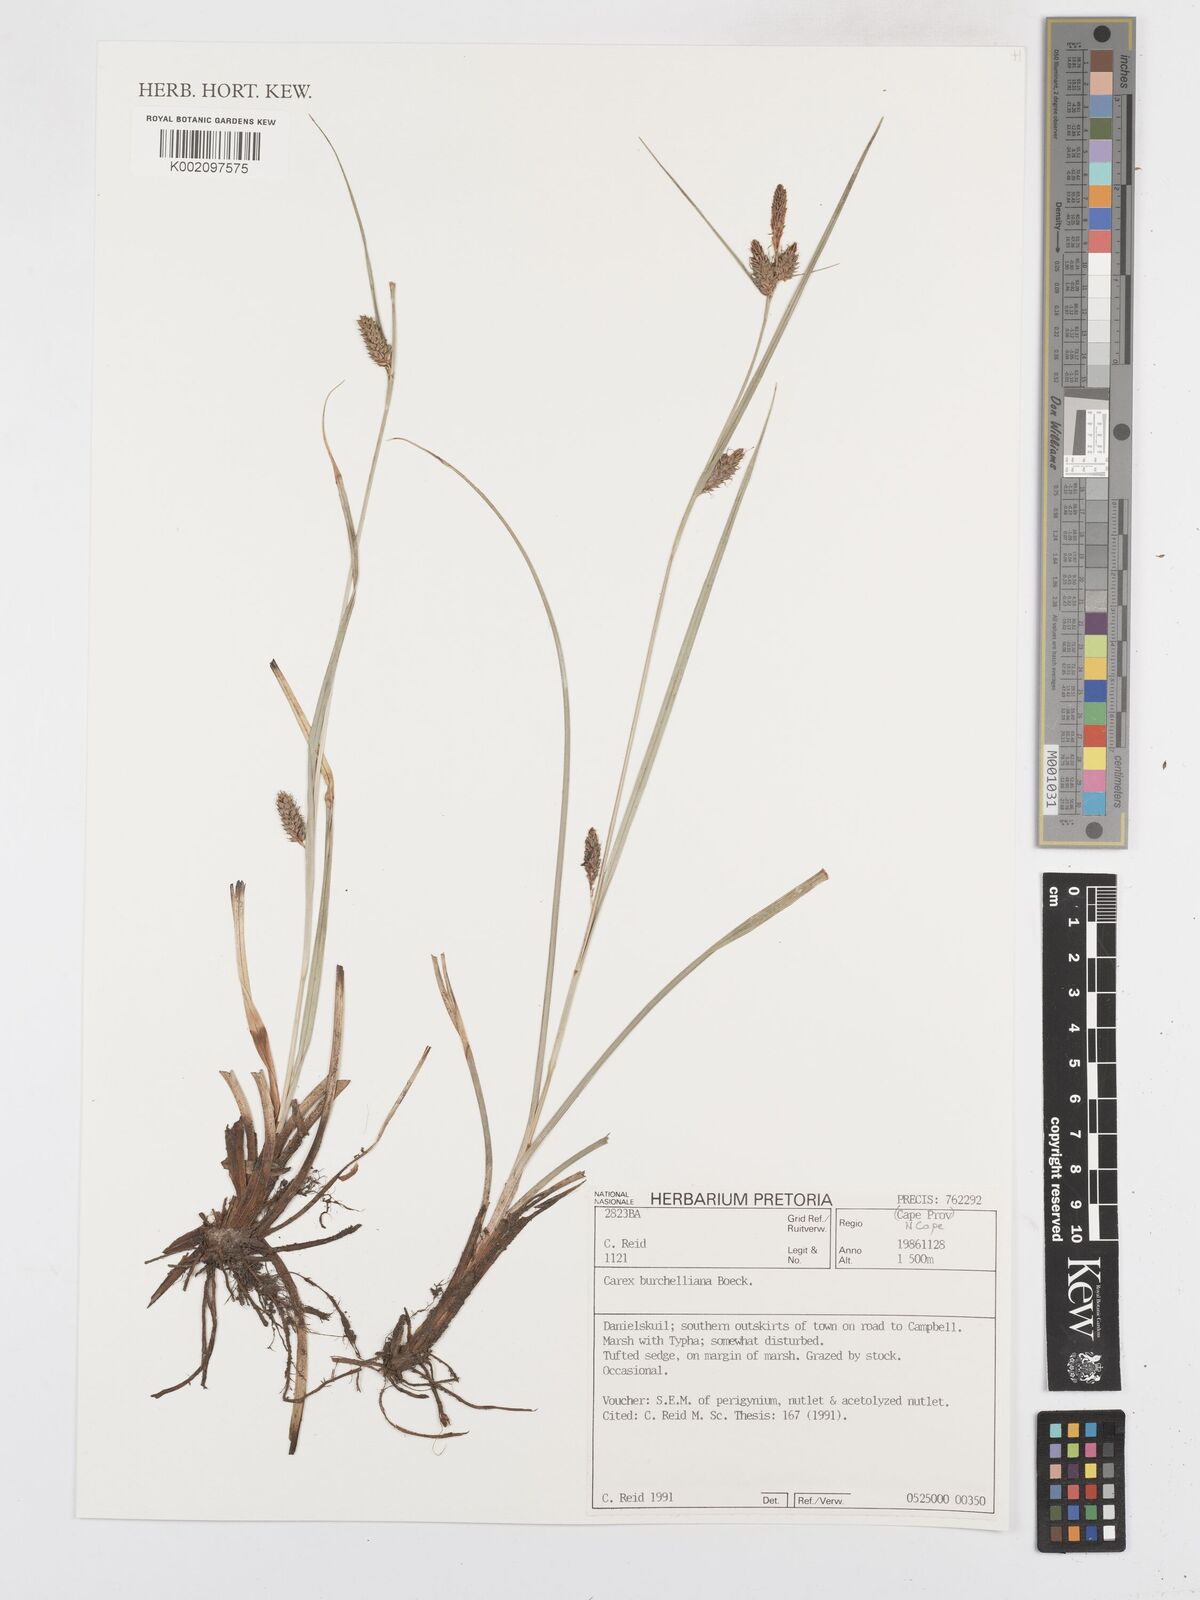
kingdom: Plantae
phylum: Tracheophyta
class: Liliopsida
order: Poales
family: Cyperaceae
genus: Carex
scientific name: Carex burchelliana
